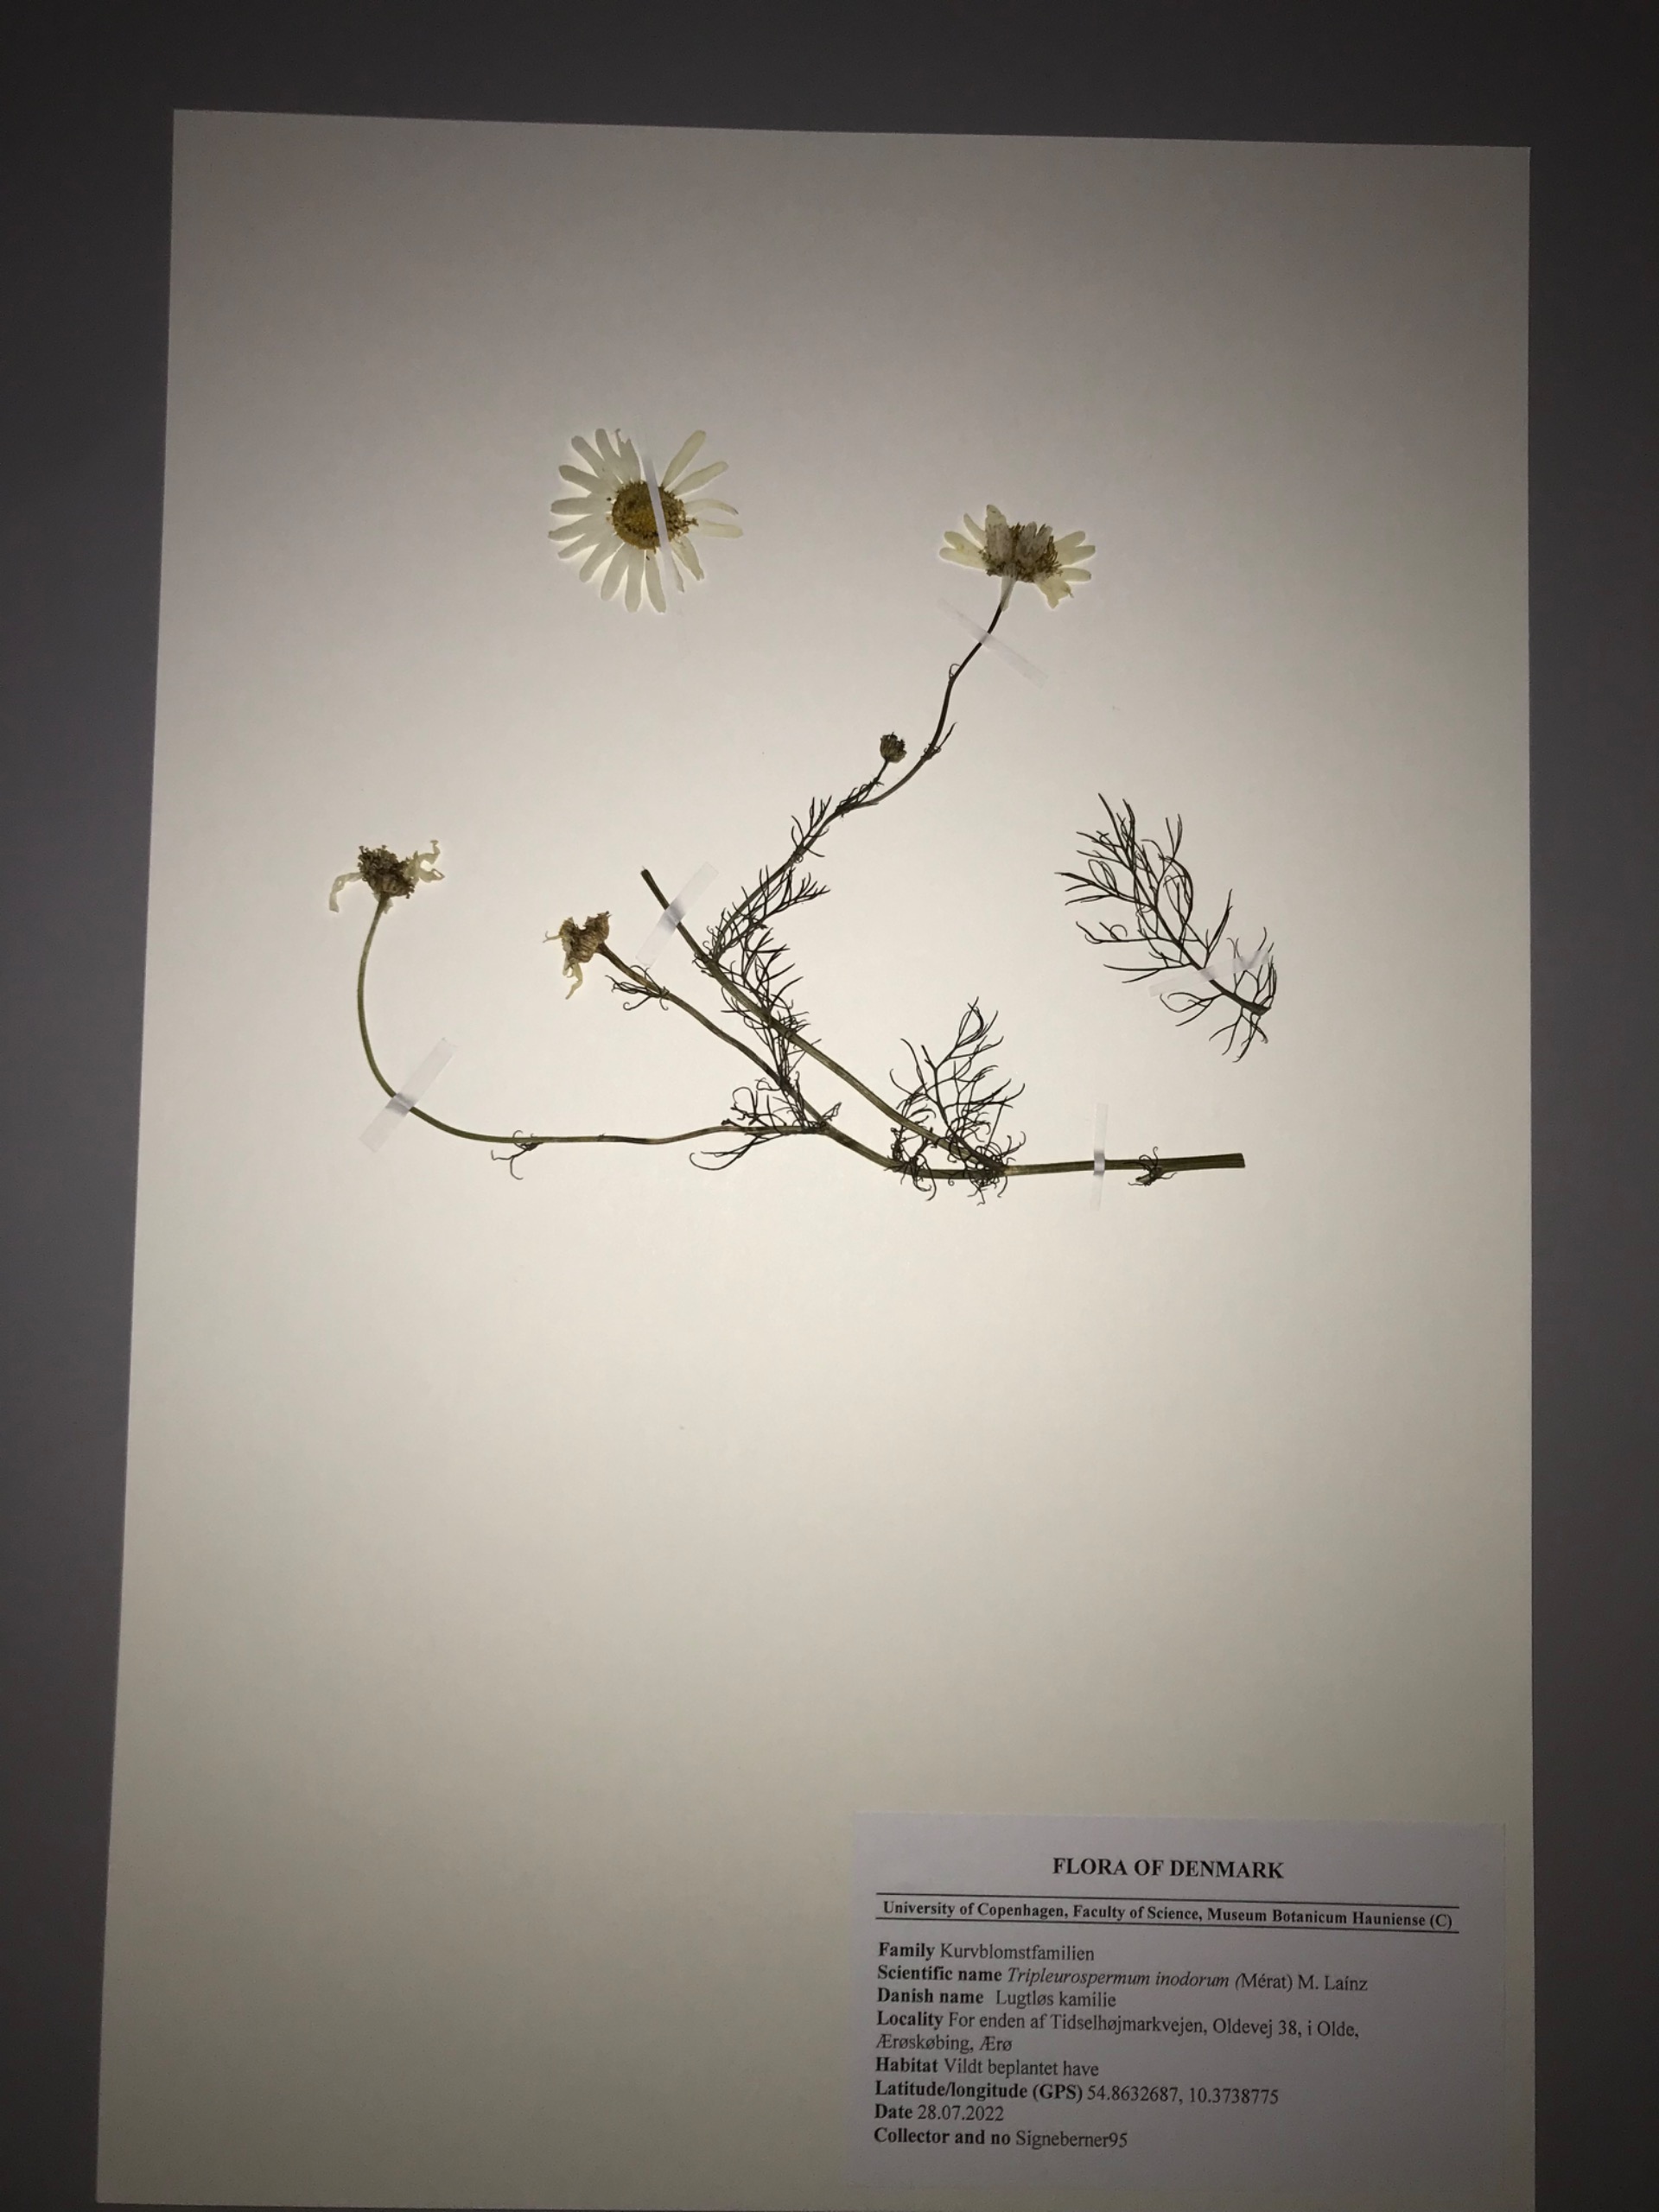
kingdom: Plantae
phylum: Tracheophyta
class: Magnoliopsida
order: Asterales
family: Asteraceae
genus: Tripleurospermum
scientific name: Tripleurospermum inodorum
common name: Lugtløs kamille
